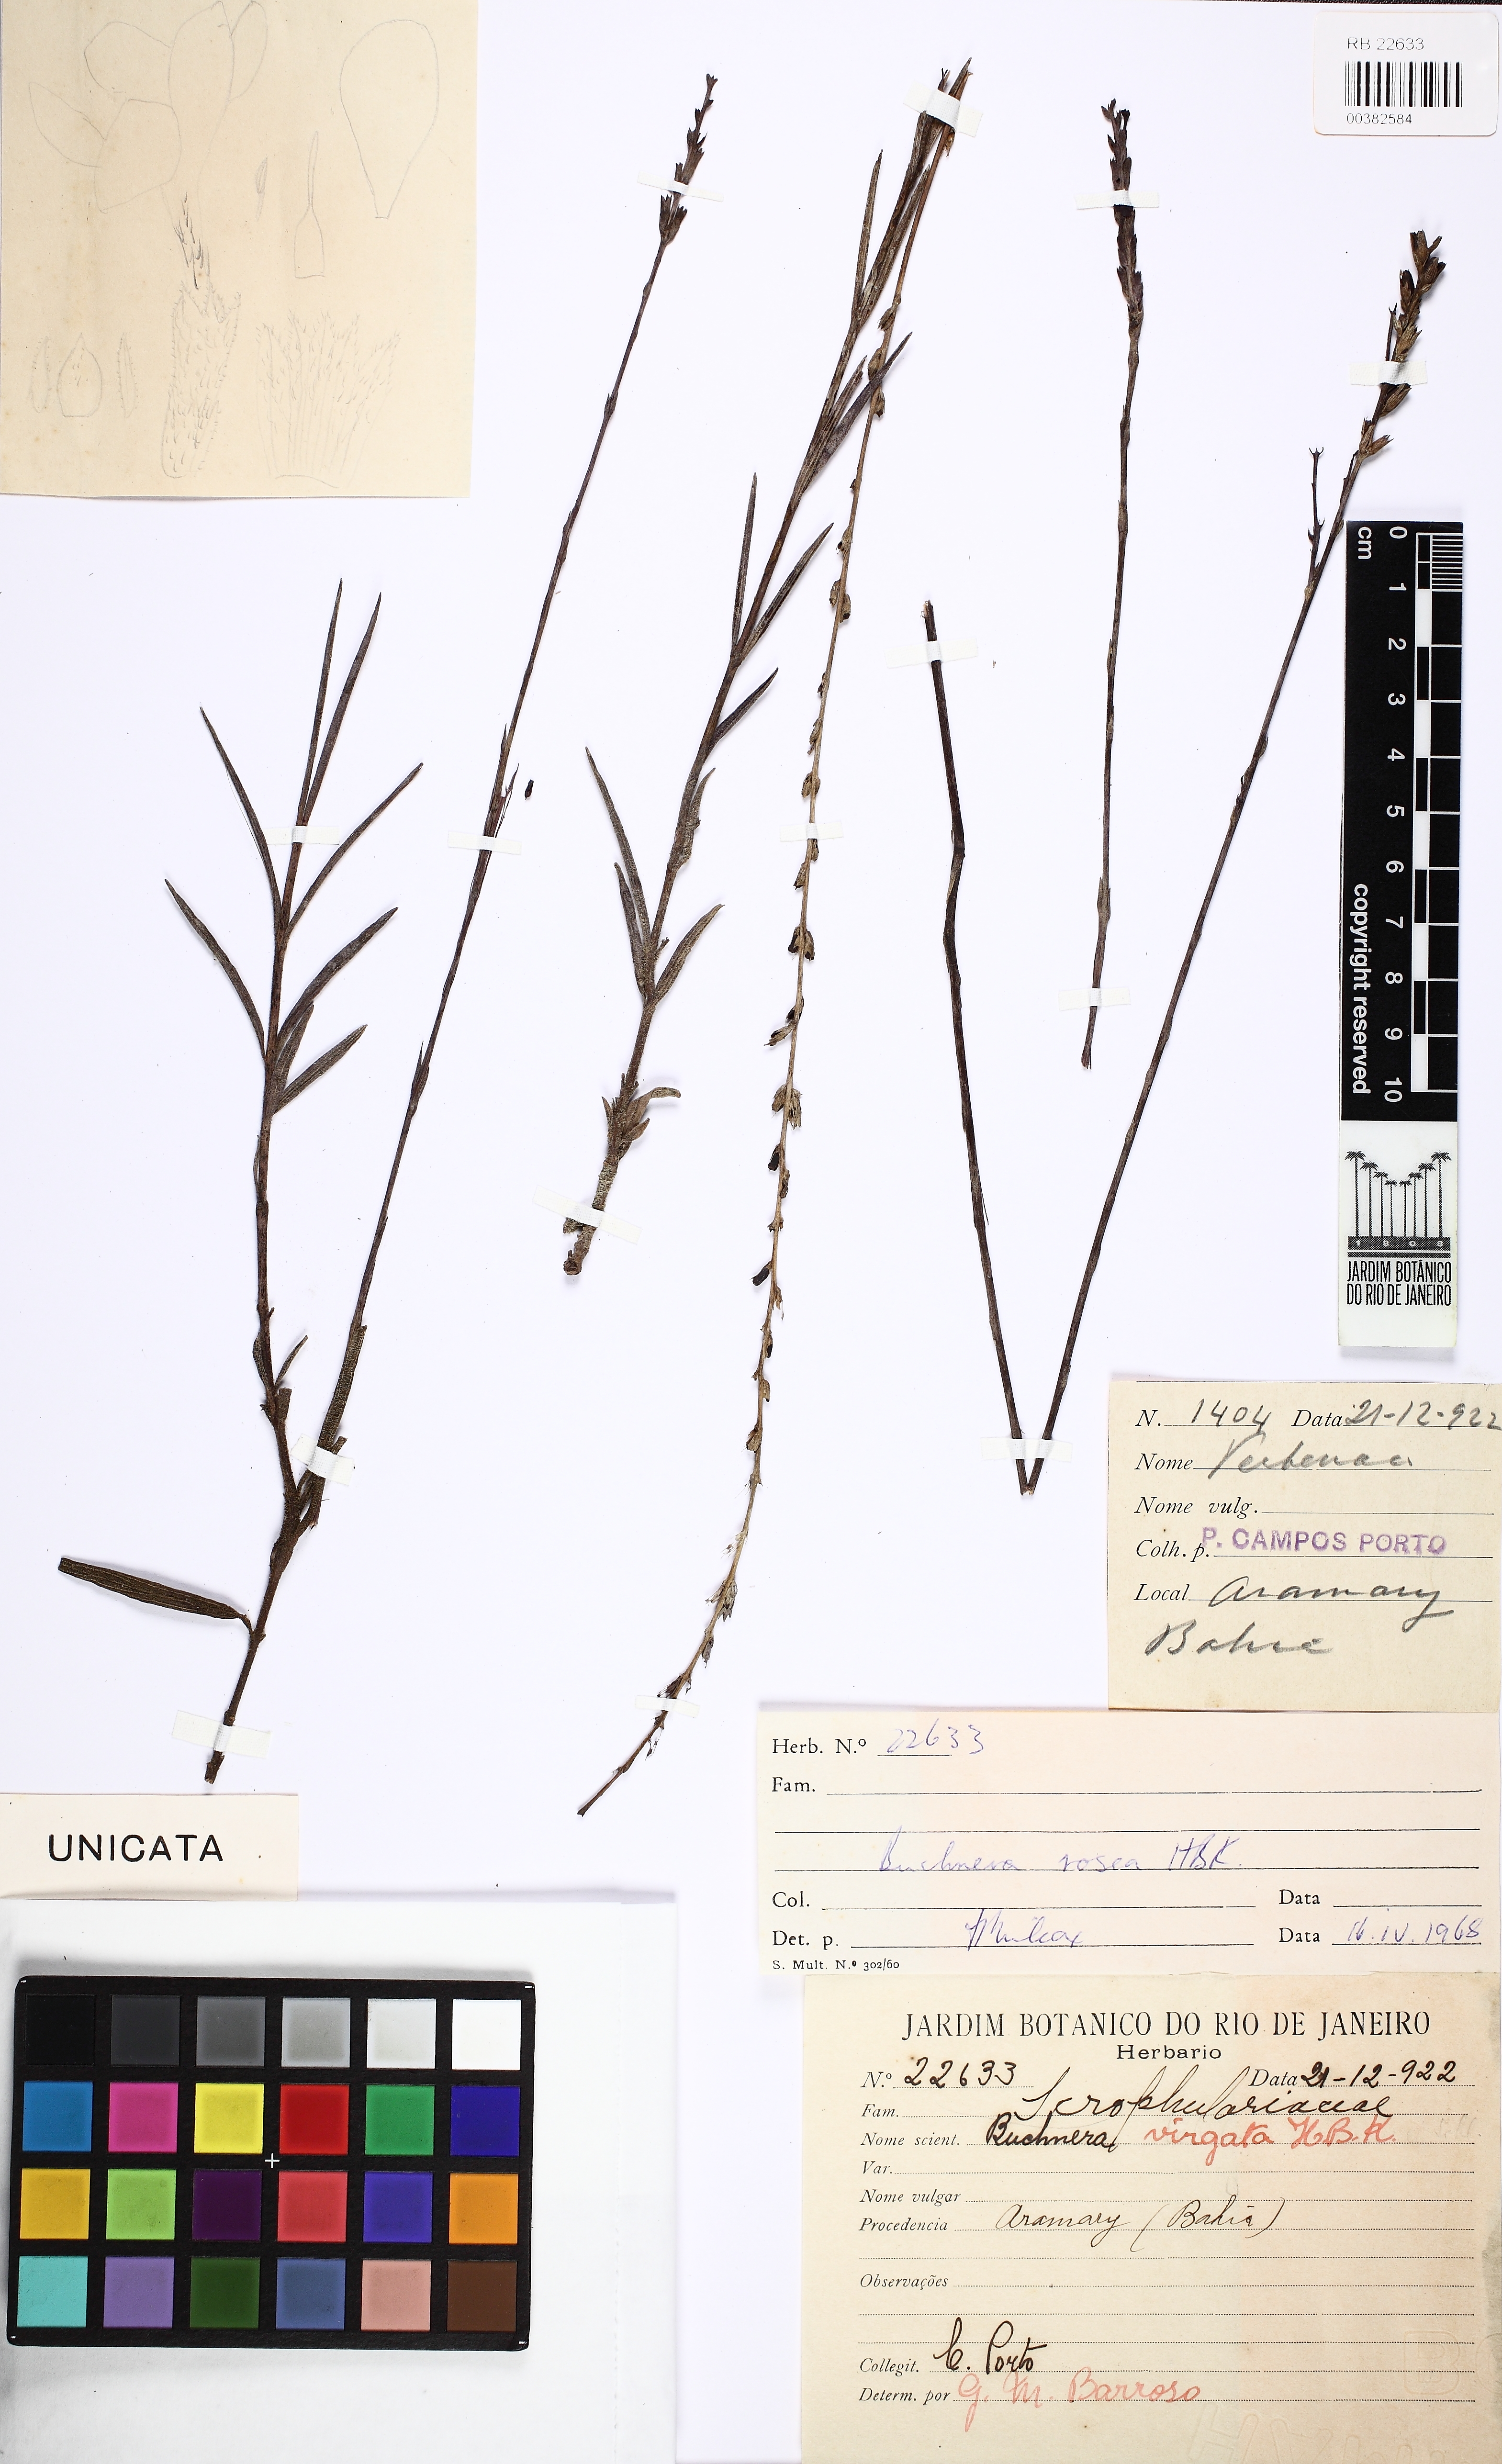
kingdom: Plantae
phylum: Tracheophyta
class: Magnoliopsida
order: Lamiales
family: Orobanchaceae
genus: Buchnera
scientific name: Buchnera rosea
